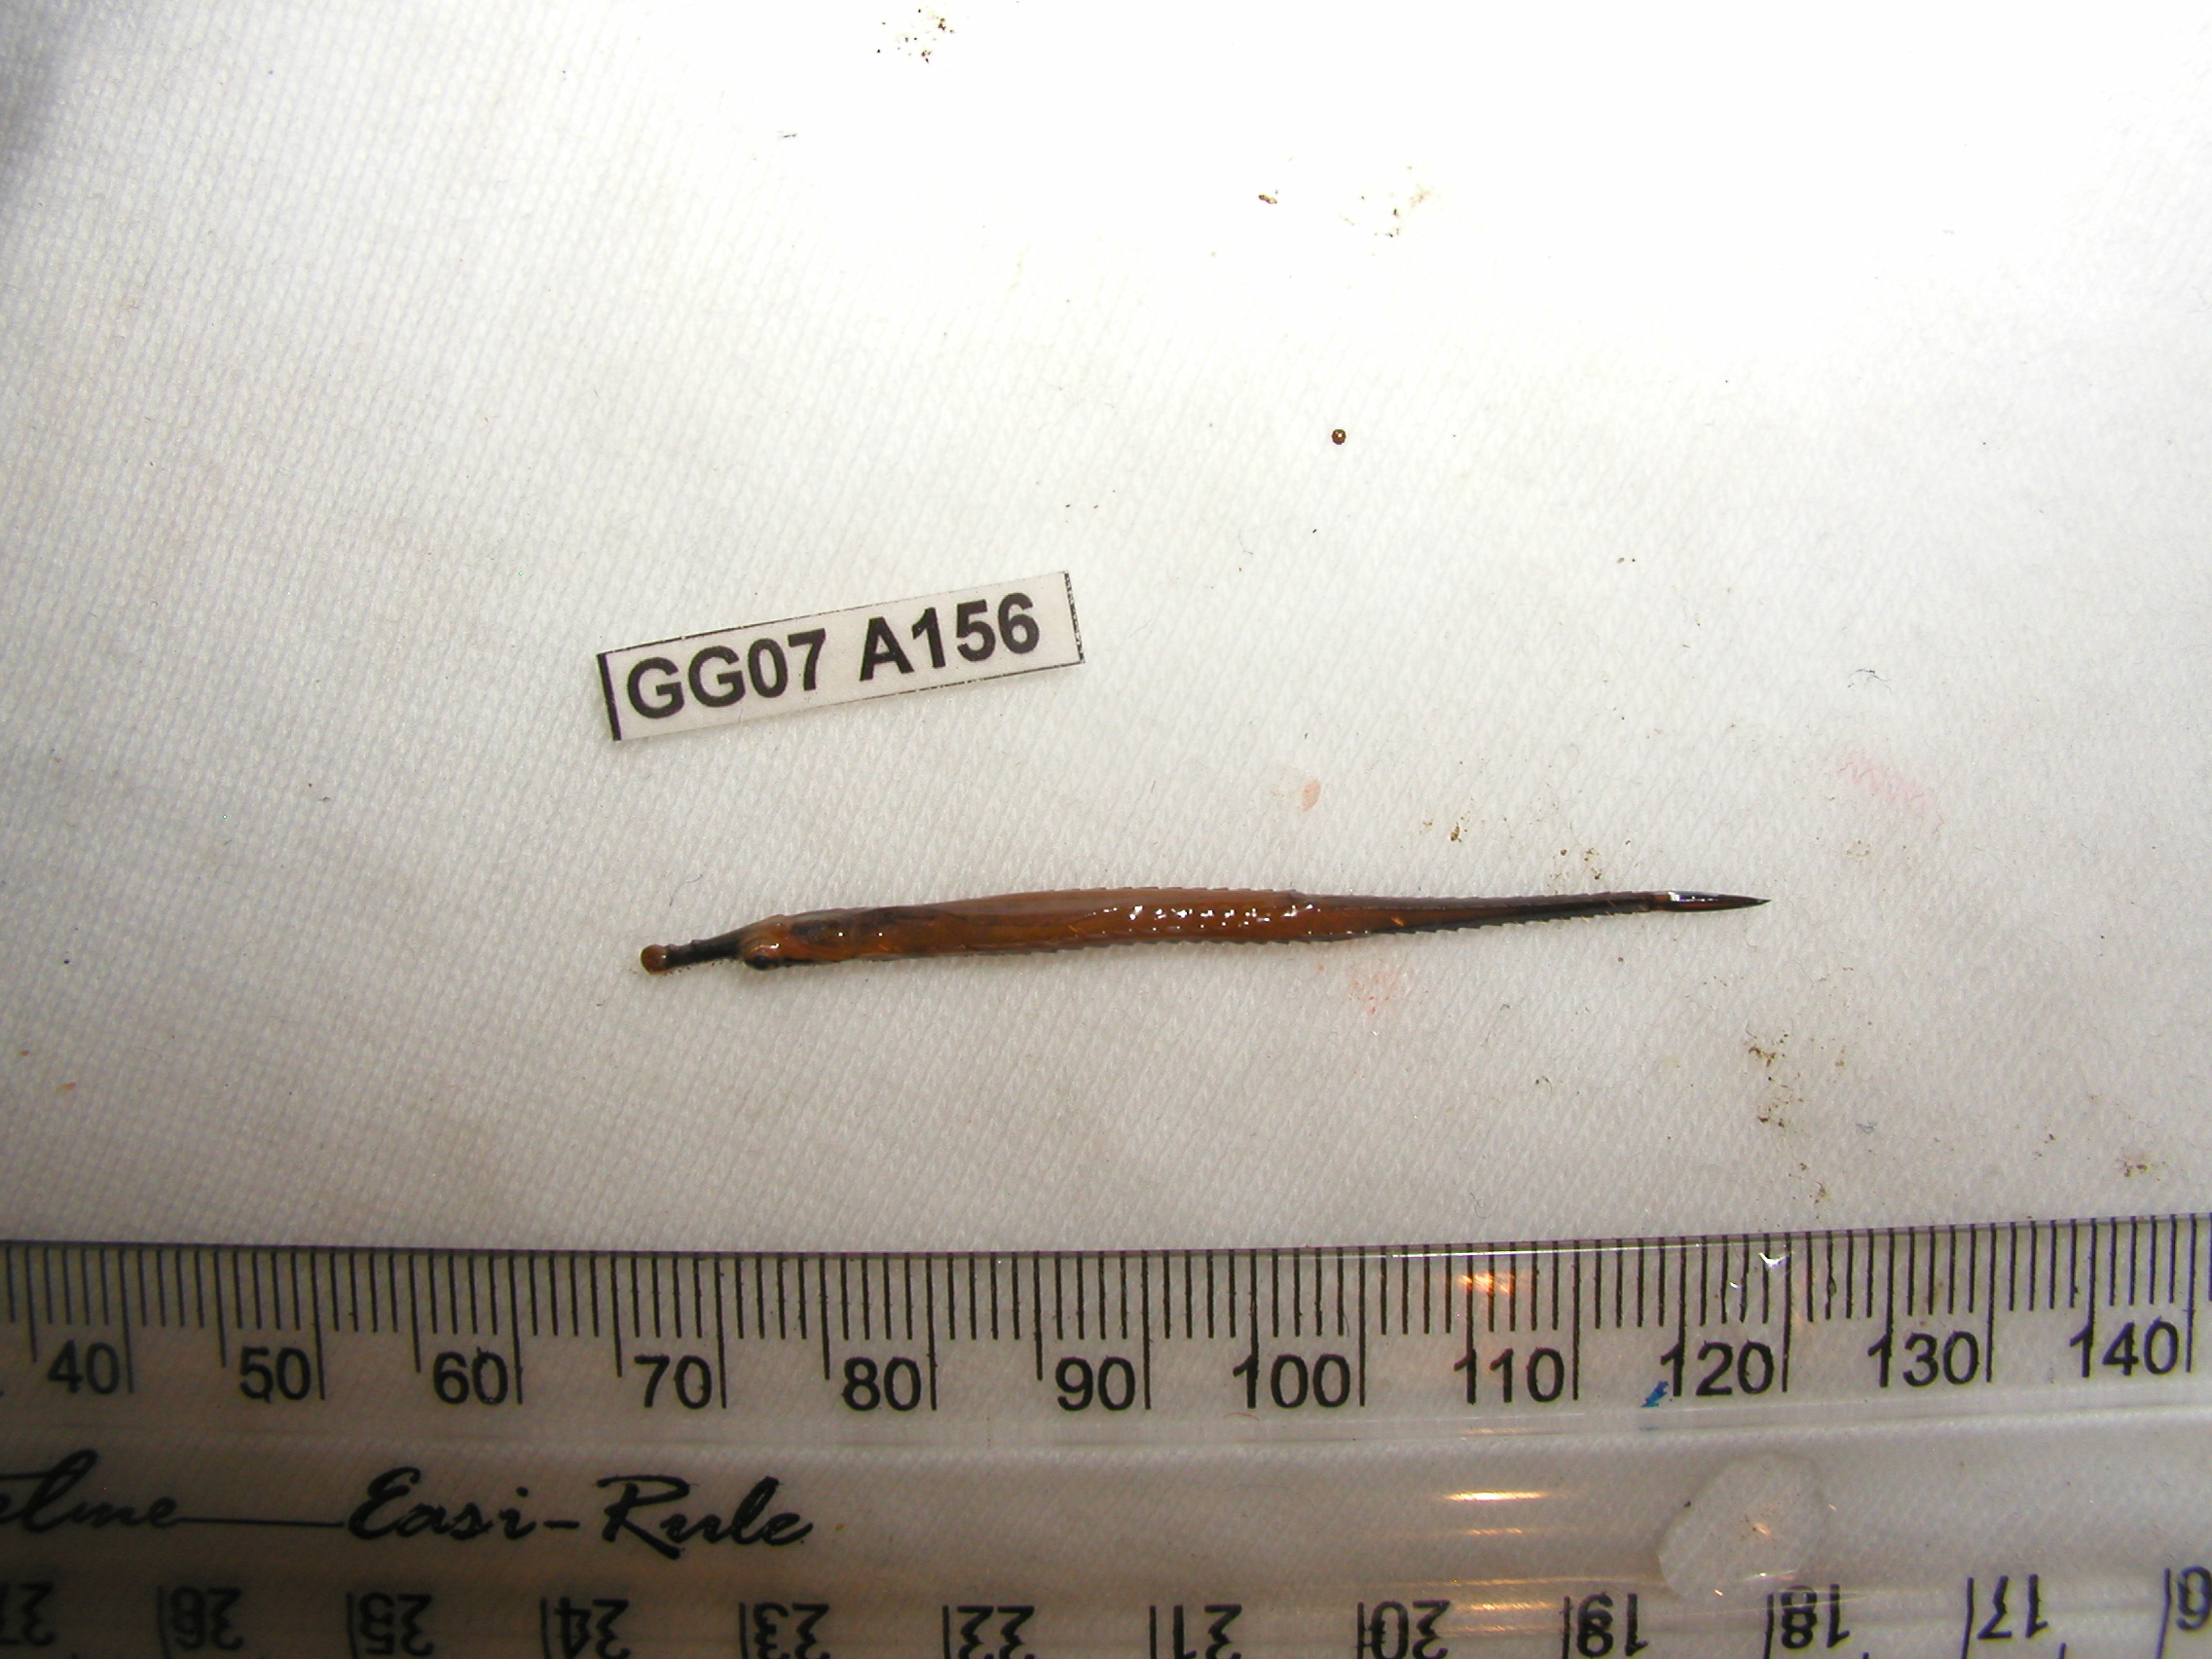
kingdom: Animalia
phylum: Chordata
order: Syngnathiformes
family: Syngnathidae
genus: Doryrhamphus
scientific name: Doryrhamphus bicarinatus
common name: Narrowstripe pipefish
